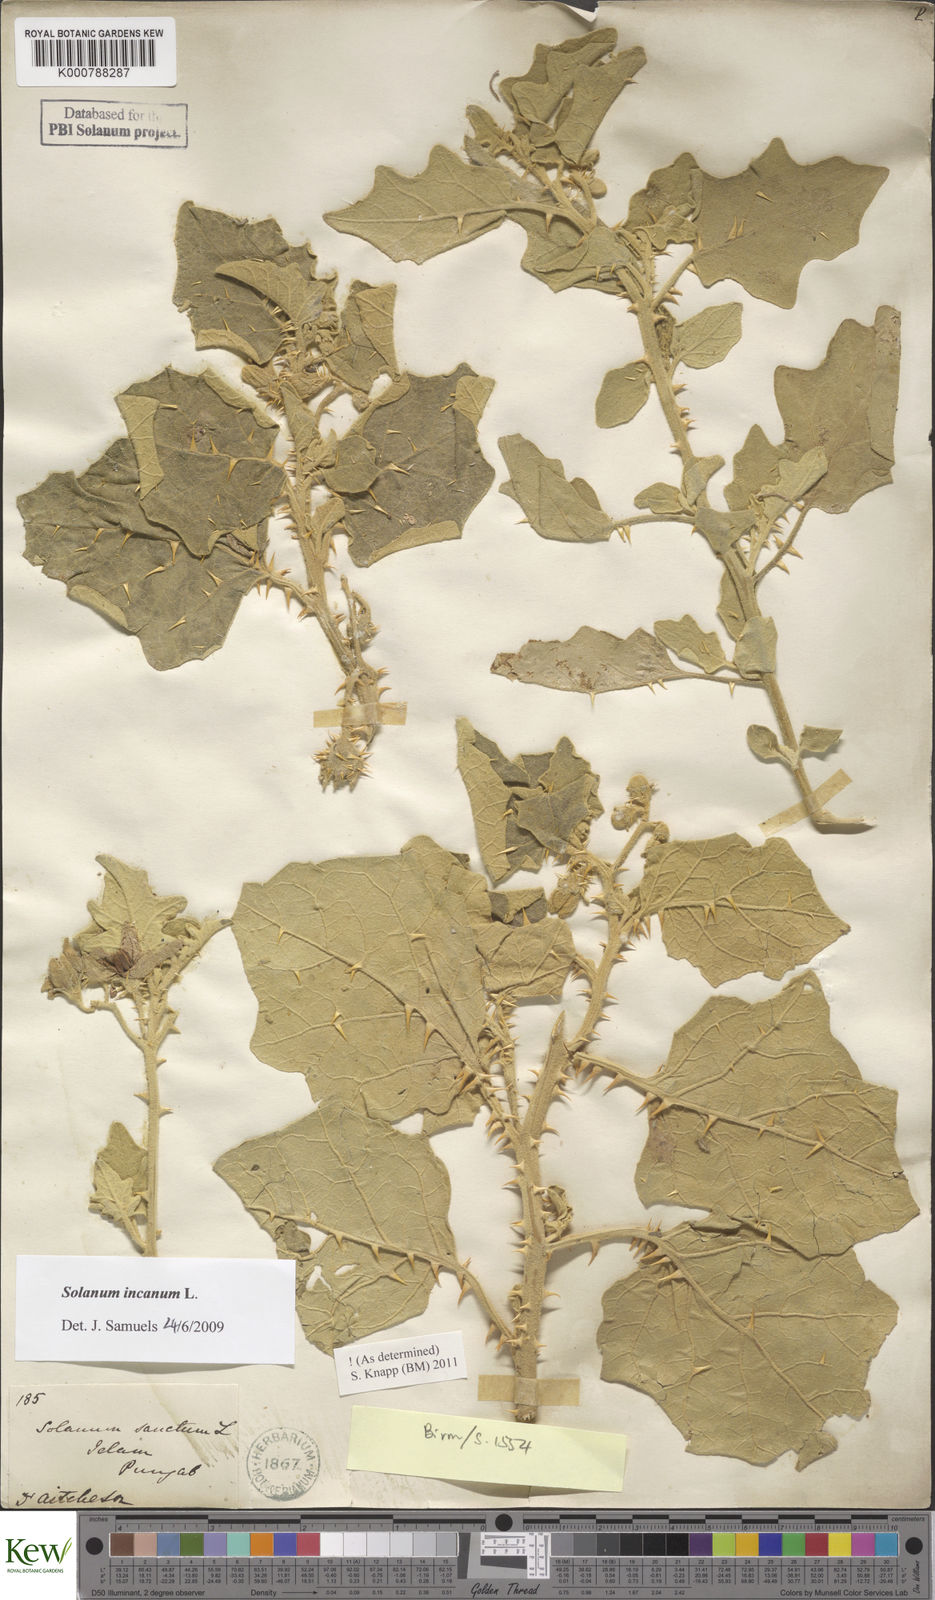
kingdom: Plantae
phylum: Tracheophyta
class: Magnoliopsida
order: Solanales
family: Solanaceae
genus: Solanum
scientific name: Solanum incanum
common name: Bitter apple
